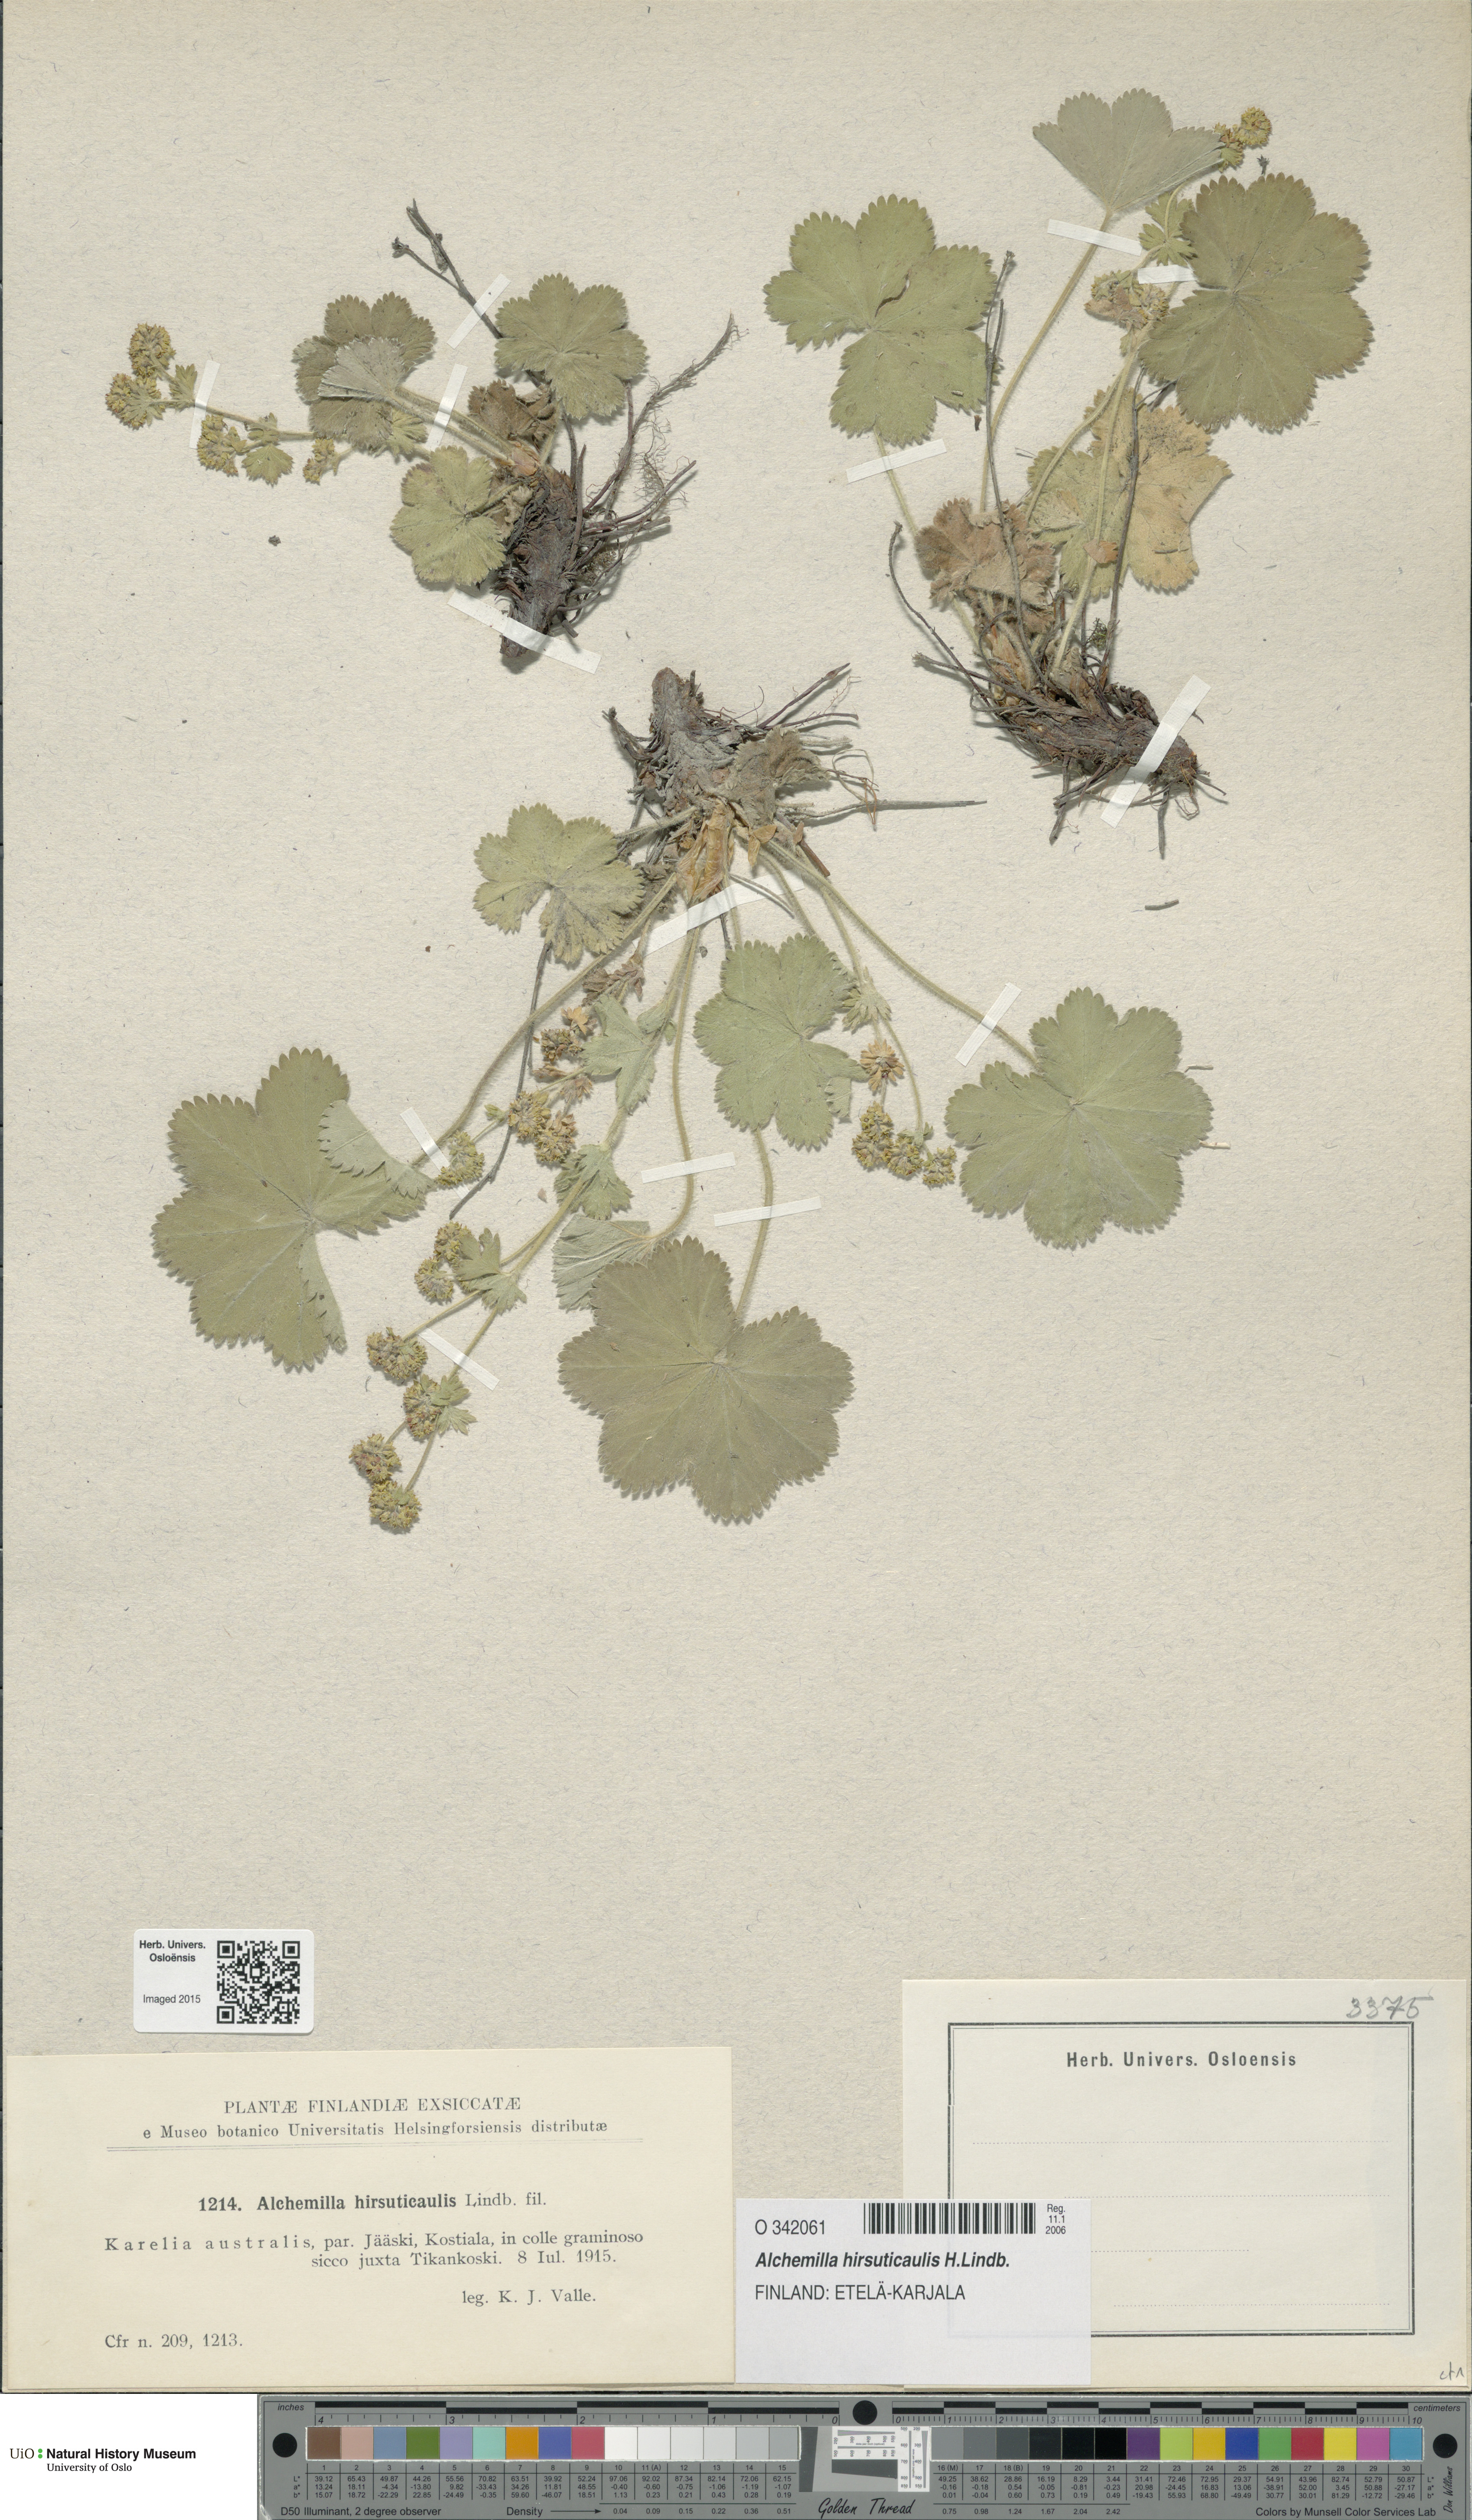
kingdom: Plantae
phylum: Tracheophyta
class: Magnoliopsida
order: Rosales
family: Rosaceae
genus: Alchemilla
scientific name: Alchemilla hirsuticaulis
